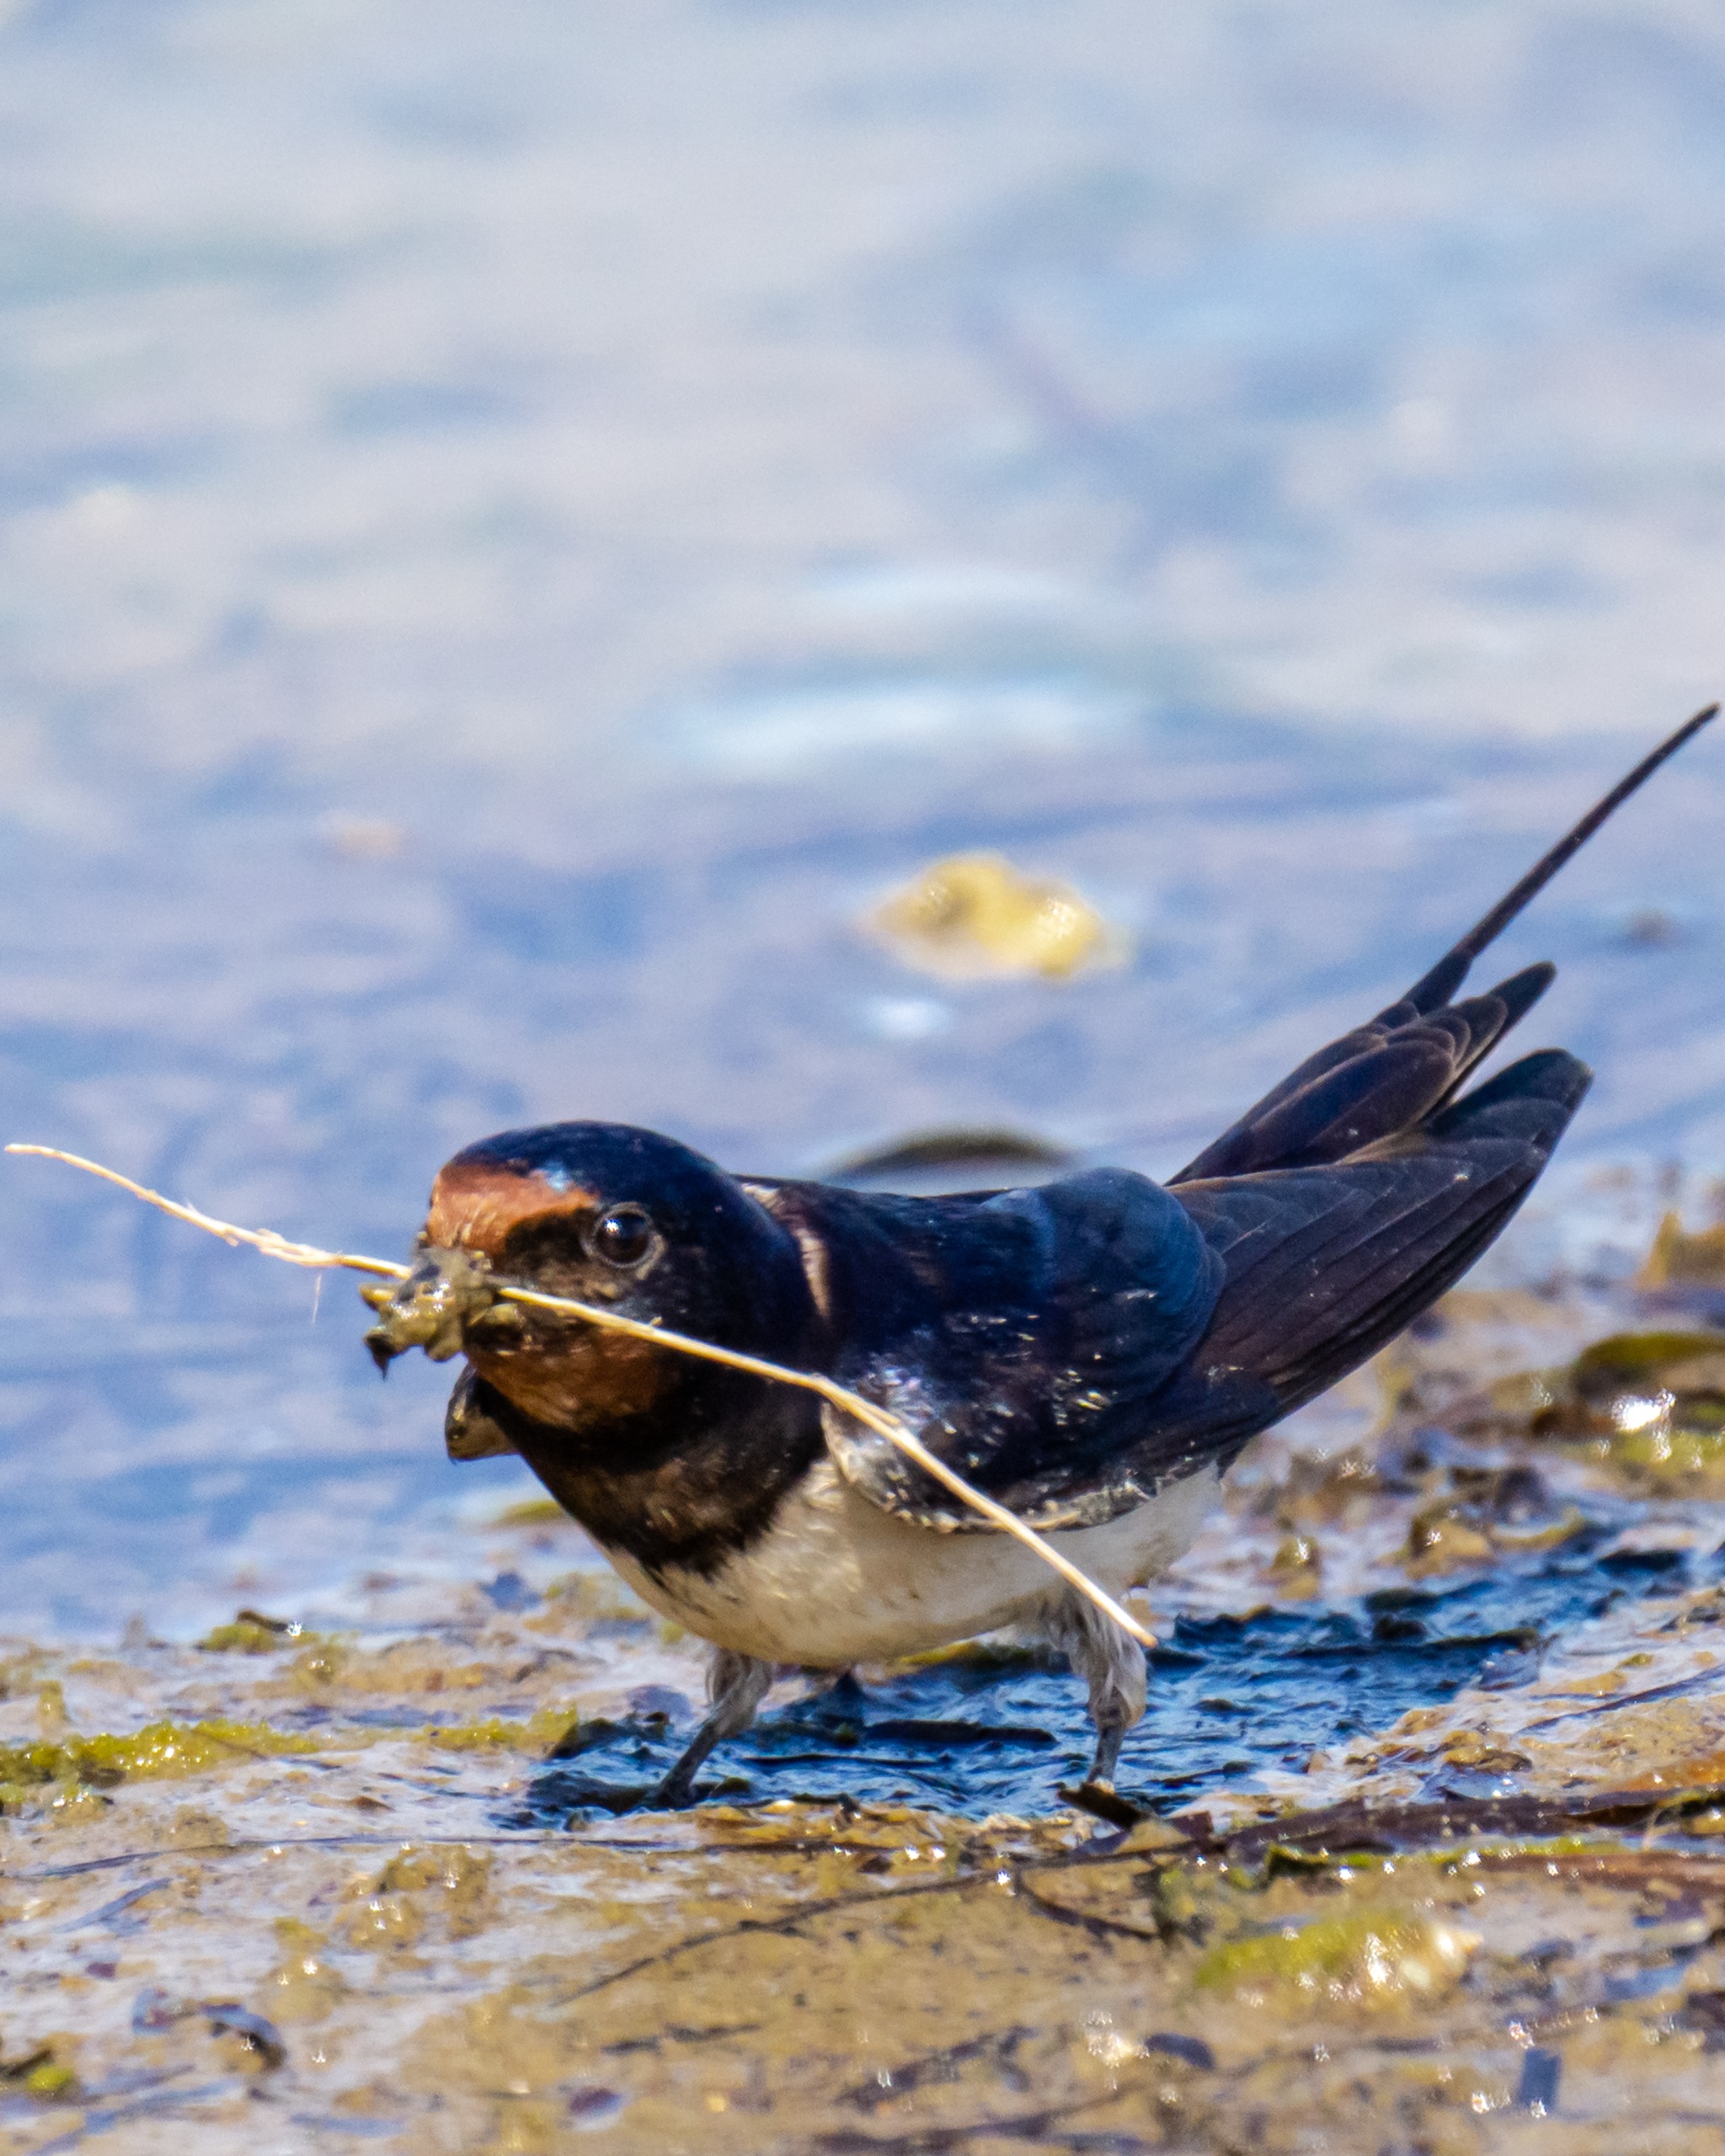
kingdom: Animalia
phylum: Chordata
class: Aves
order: Passeriformes
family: Hirundinidae
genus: Hirundo
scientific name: Hirundo rustica
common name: Landsvale
